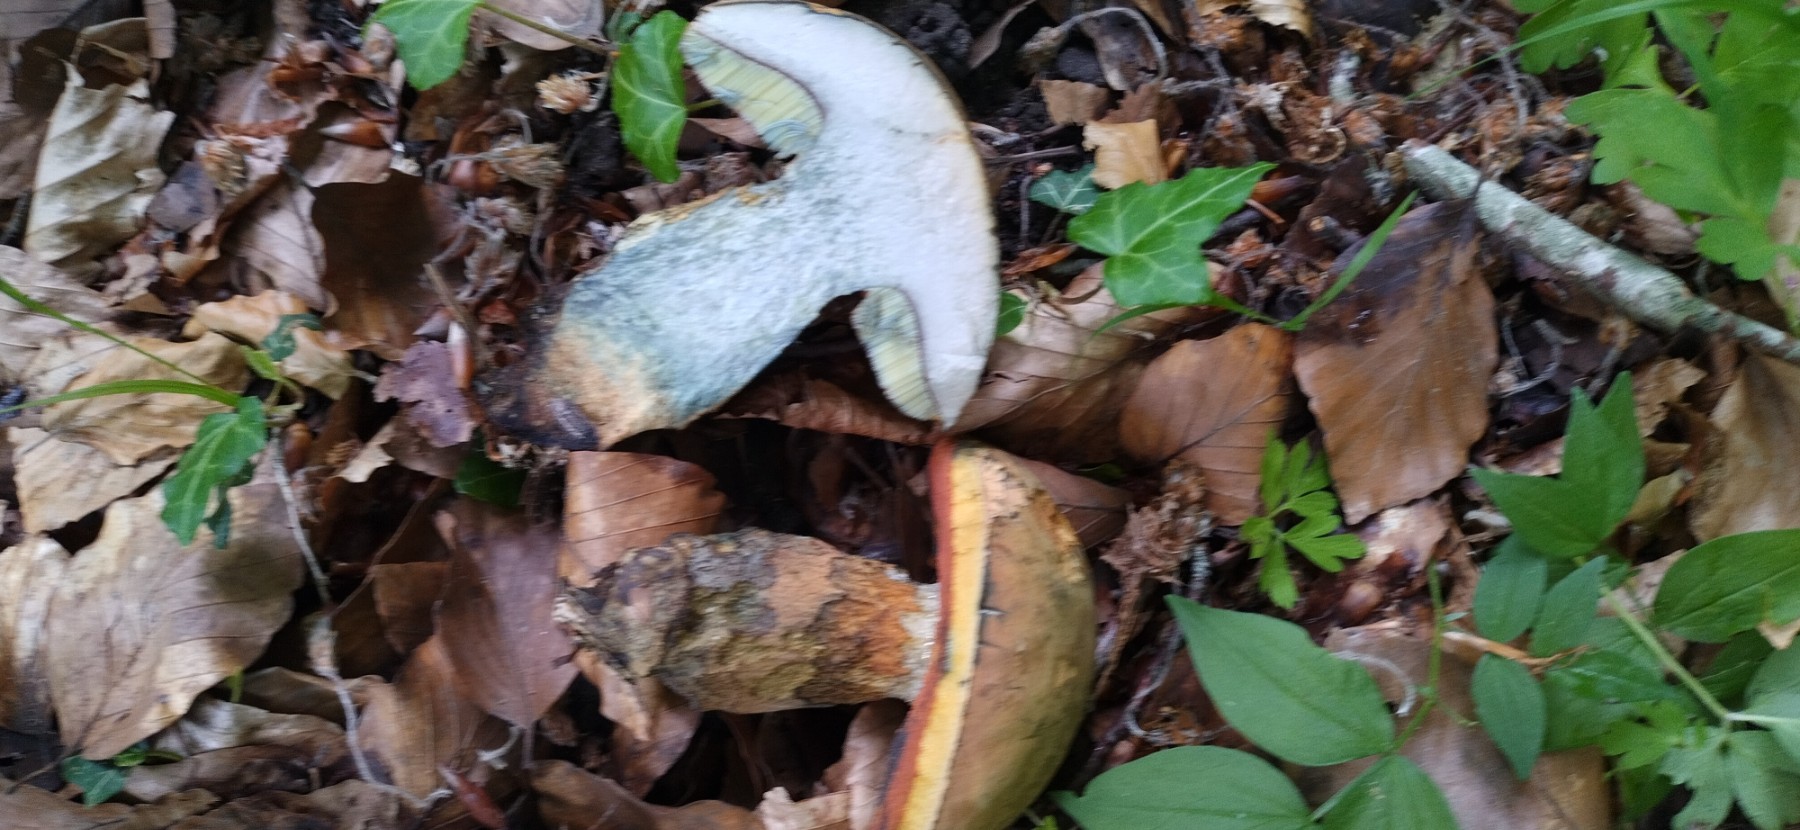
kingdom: Fungi
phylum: Basidiomycota
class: Agaricomycetes
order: Boletales
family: Boletaceae
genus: Suillellus
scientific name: Suillellus luridus
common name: netstokket indigorørhat
